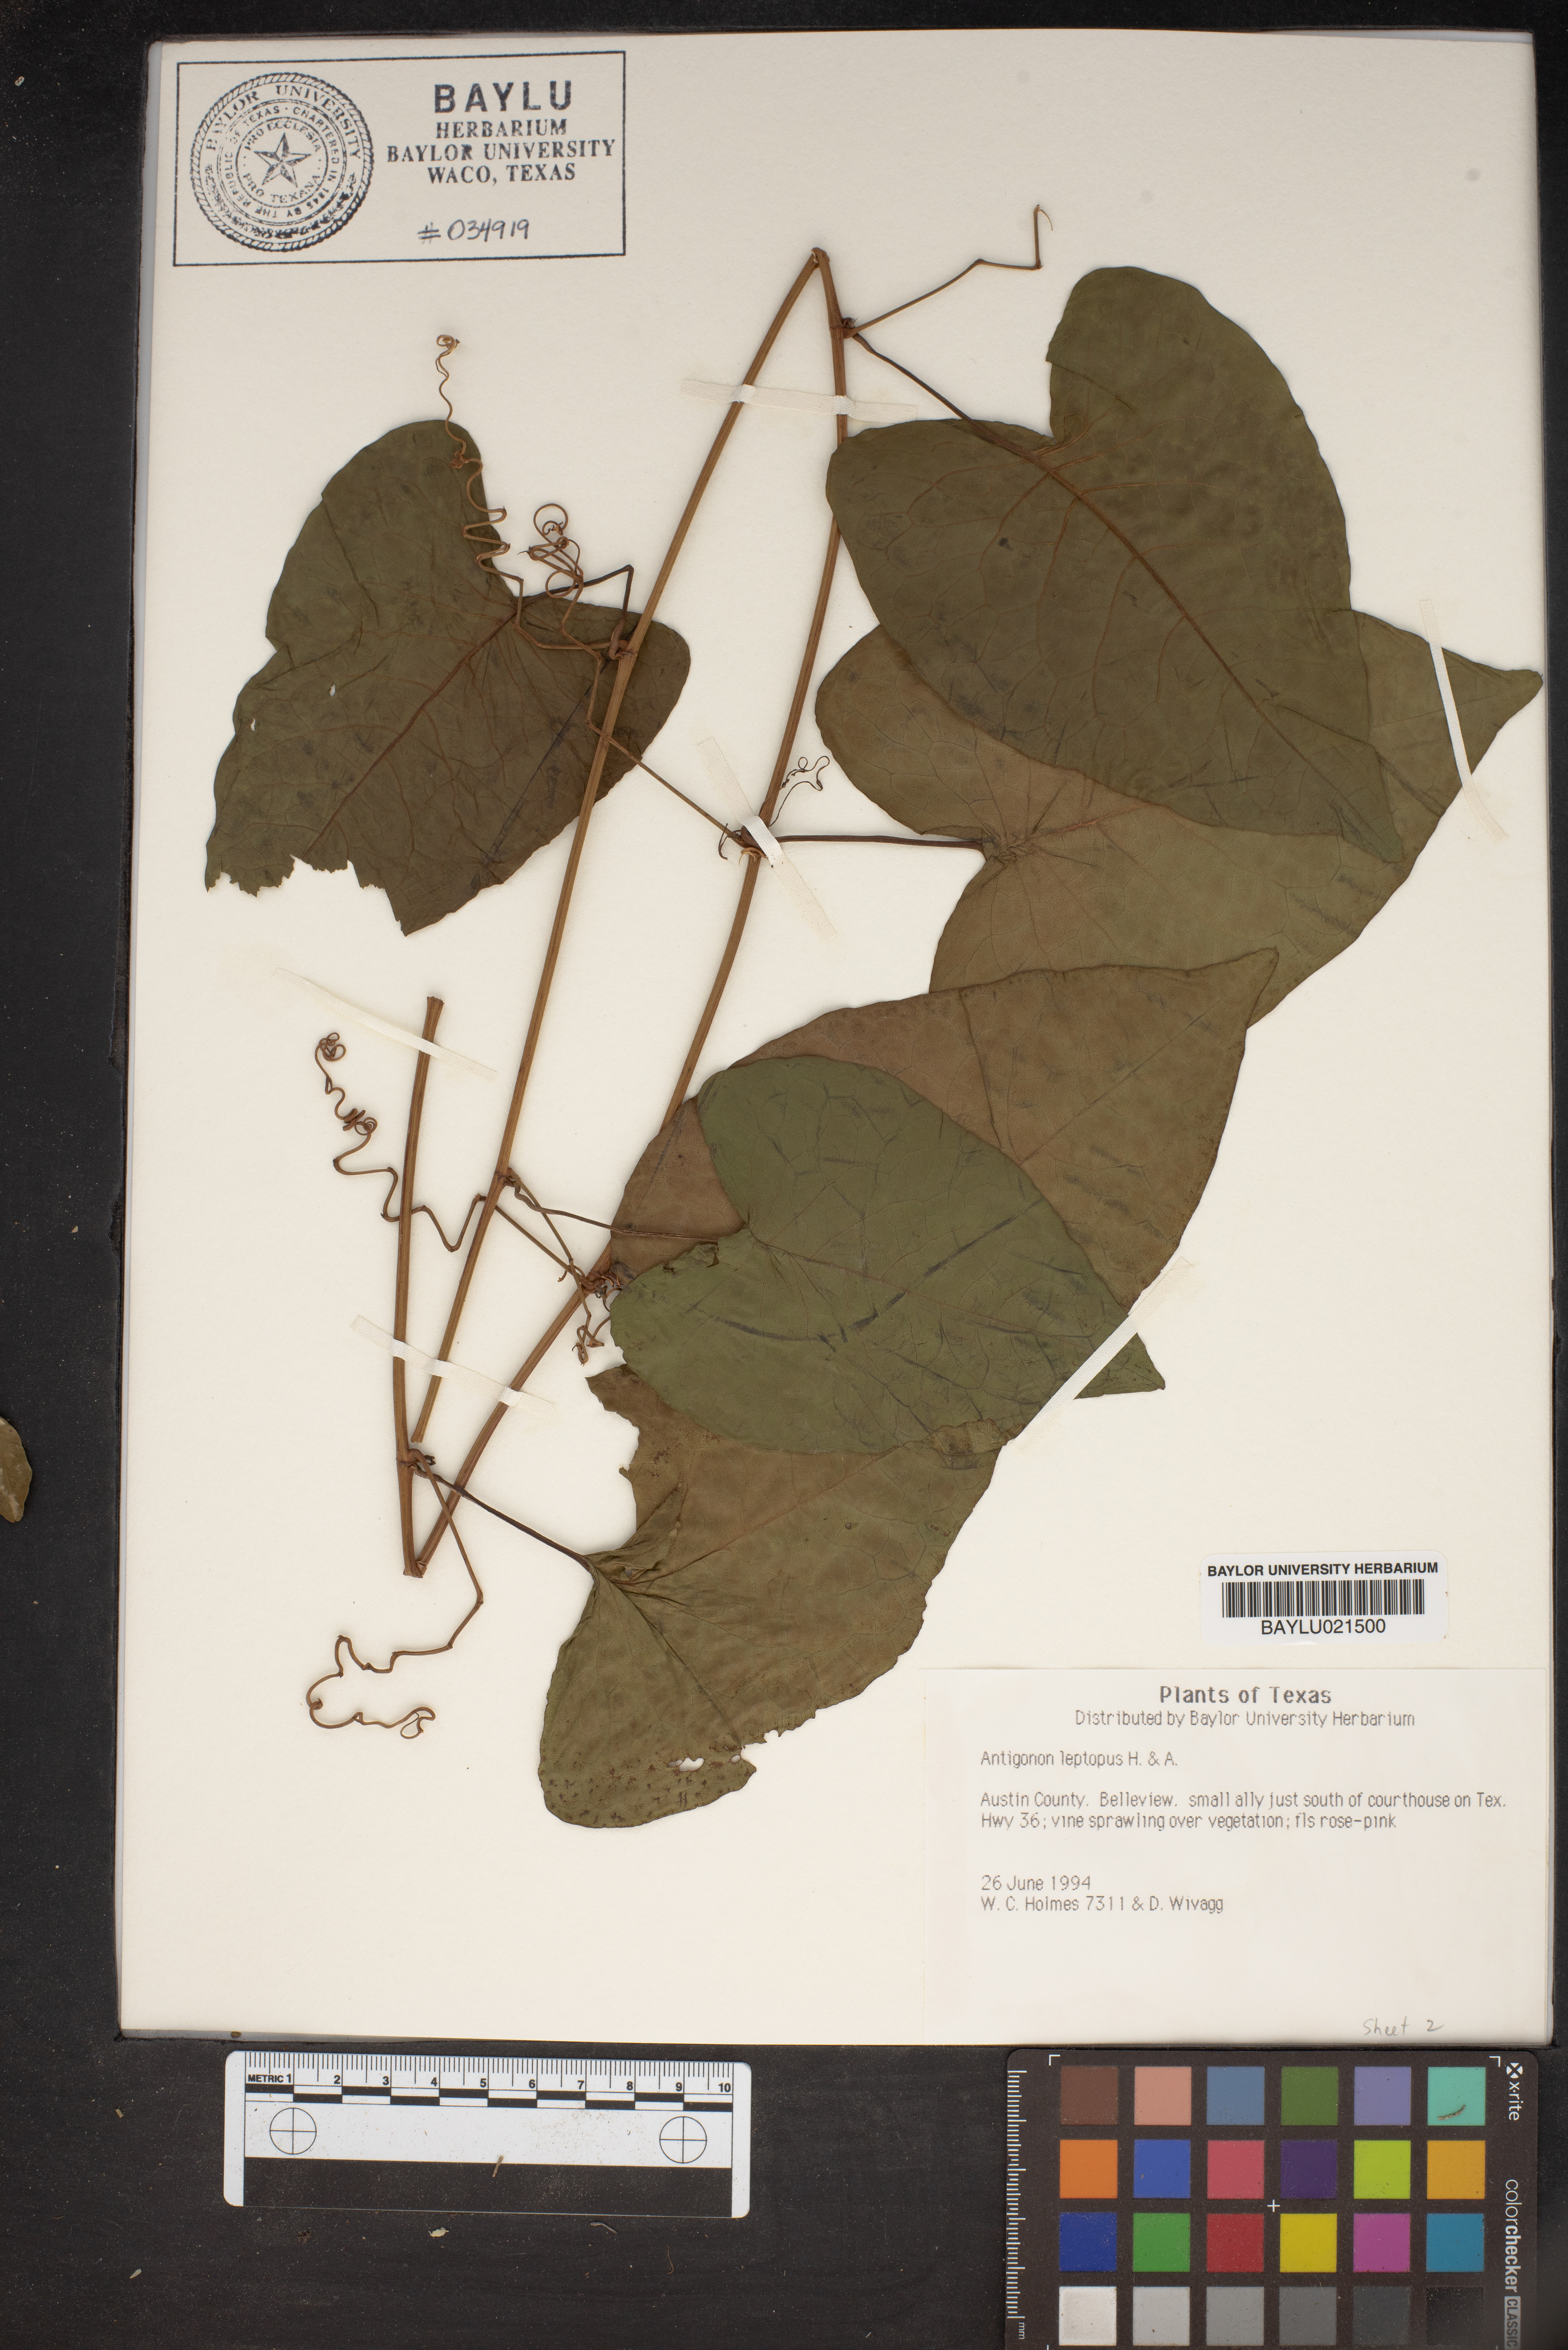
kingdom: Plantae
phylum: Tracheophyta
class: Magnoliopsida
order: Caryophyllales
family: Polygonaceae
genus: Antigonon
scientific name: Antigonon leptopus
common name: Coral vine
